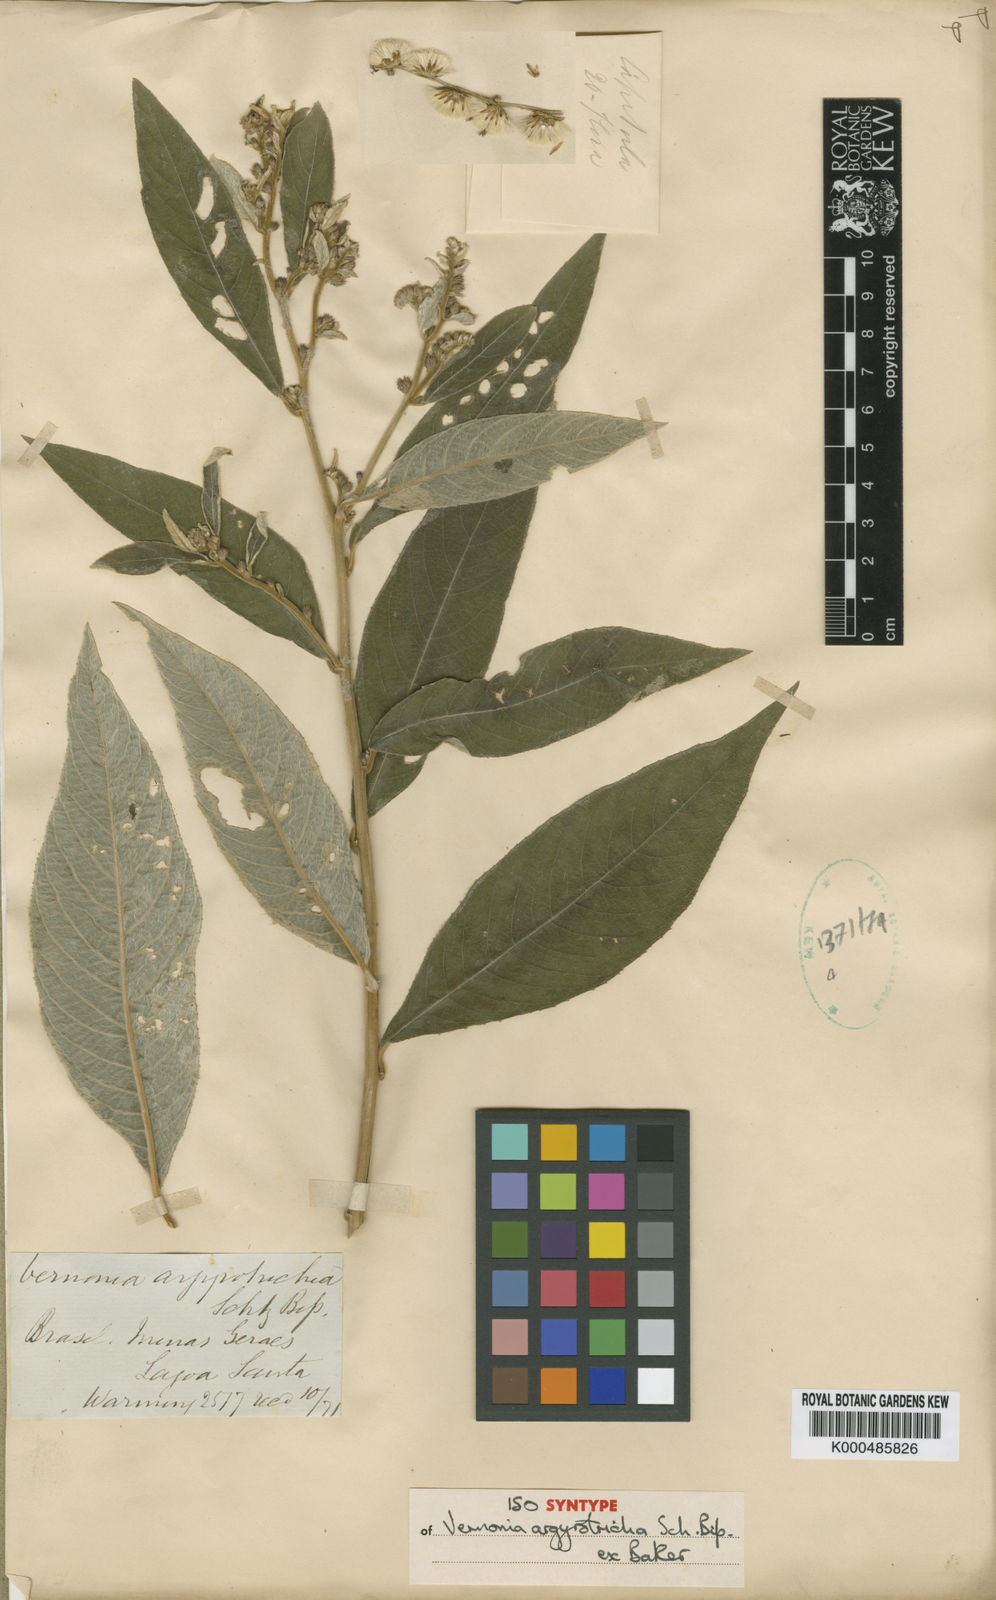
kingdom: Plantae
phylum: Tracheophyta
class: Magnoliopsida
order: Asterales
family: Asteraceae
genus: Lepidaploa
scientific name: Lepidaploa argyrotricha
